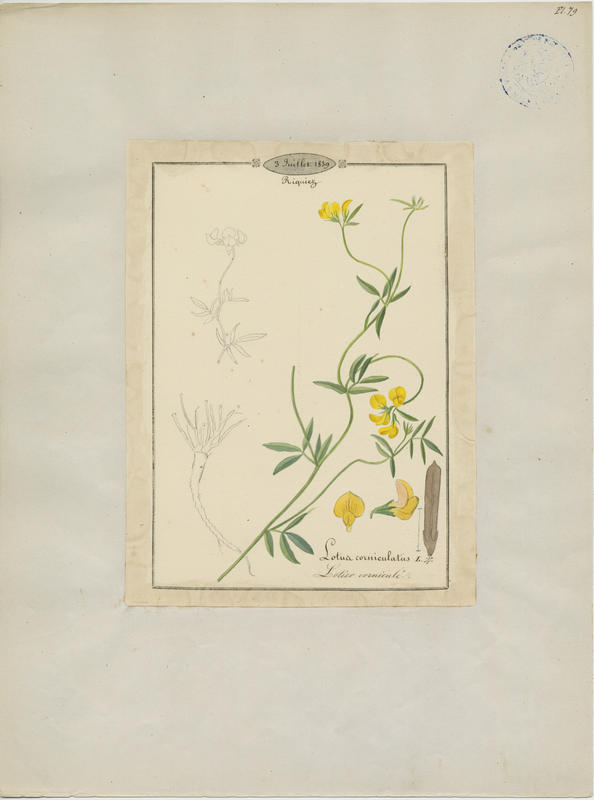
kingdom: Plantae
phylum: Tracheophyta
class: Magnoliopsida
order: Fabales
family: Fabaceae
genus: Lotus
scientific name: Lotus corniculatus
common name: Common bird's-foot-trefoil
